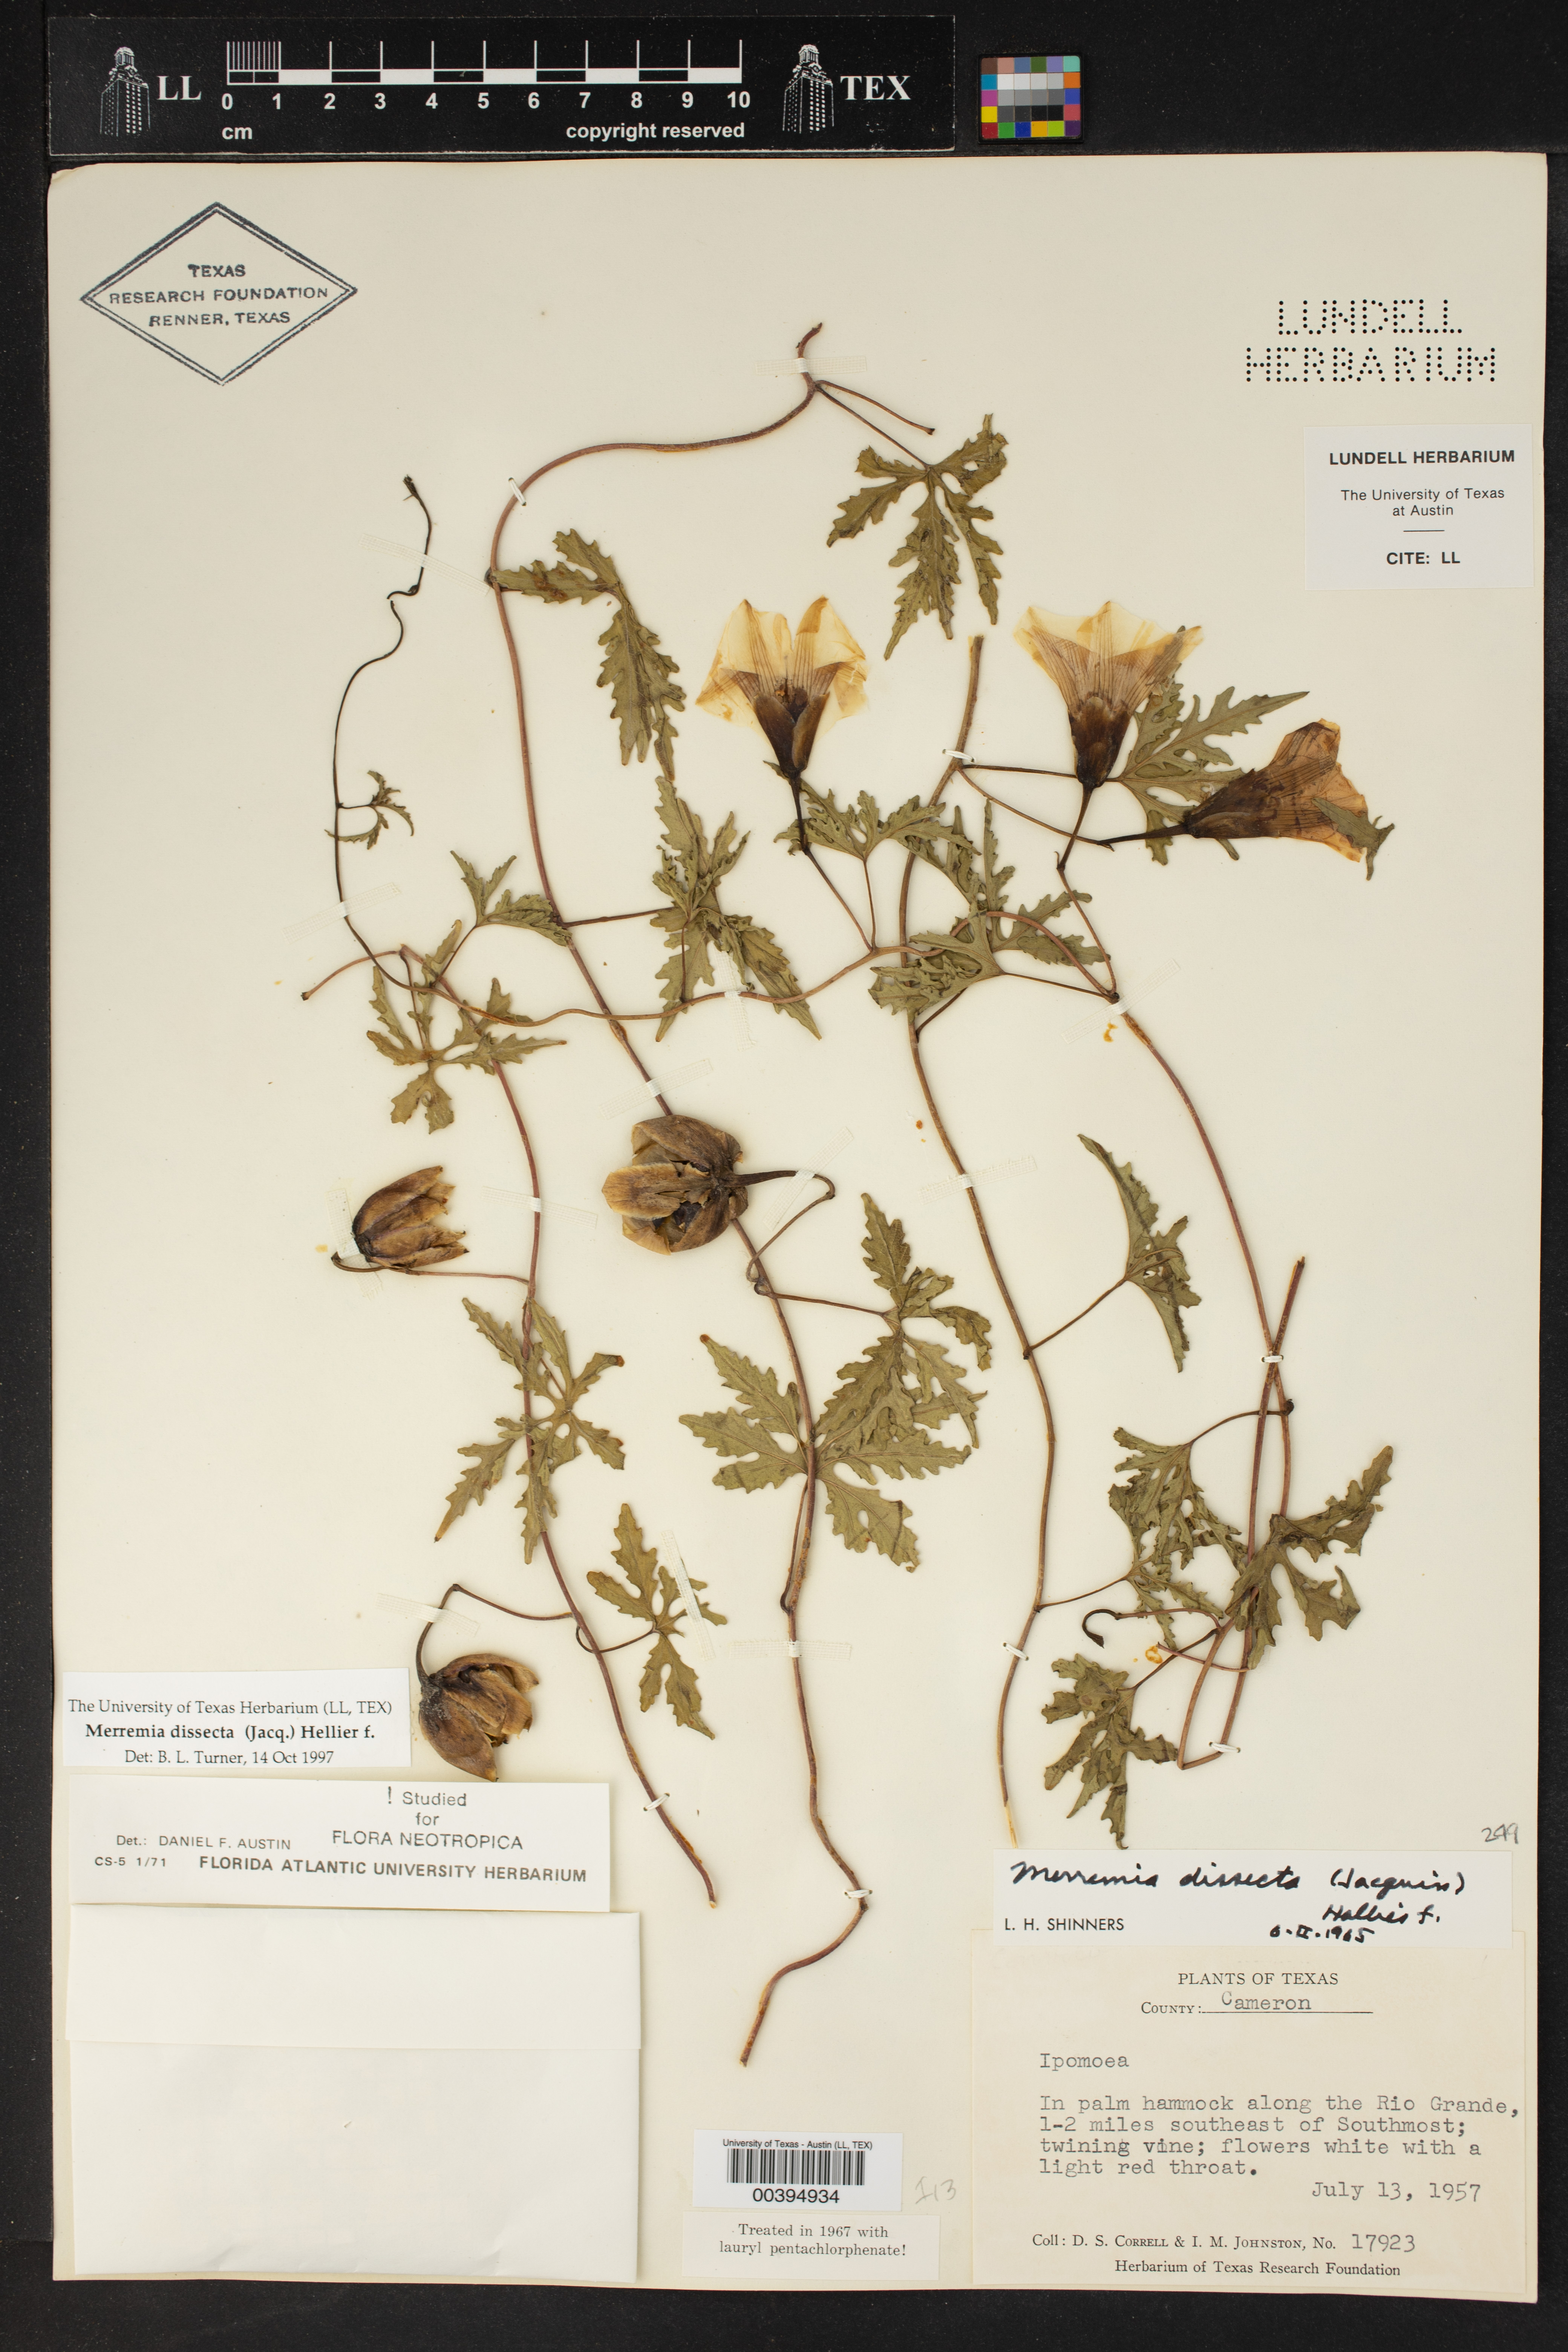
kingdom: Plantae
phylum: Tracheophyta
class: Magnoliopsida
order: Solanales
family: Convolvulaceae
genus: Distimake
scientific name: Distimake dissectus
